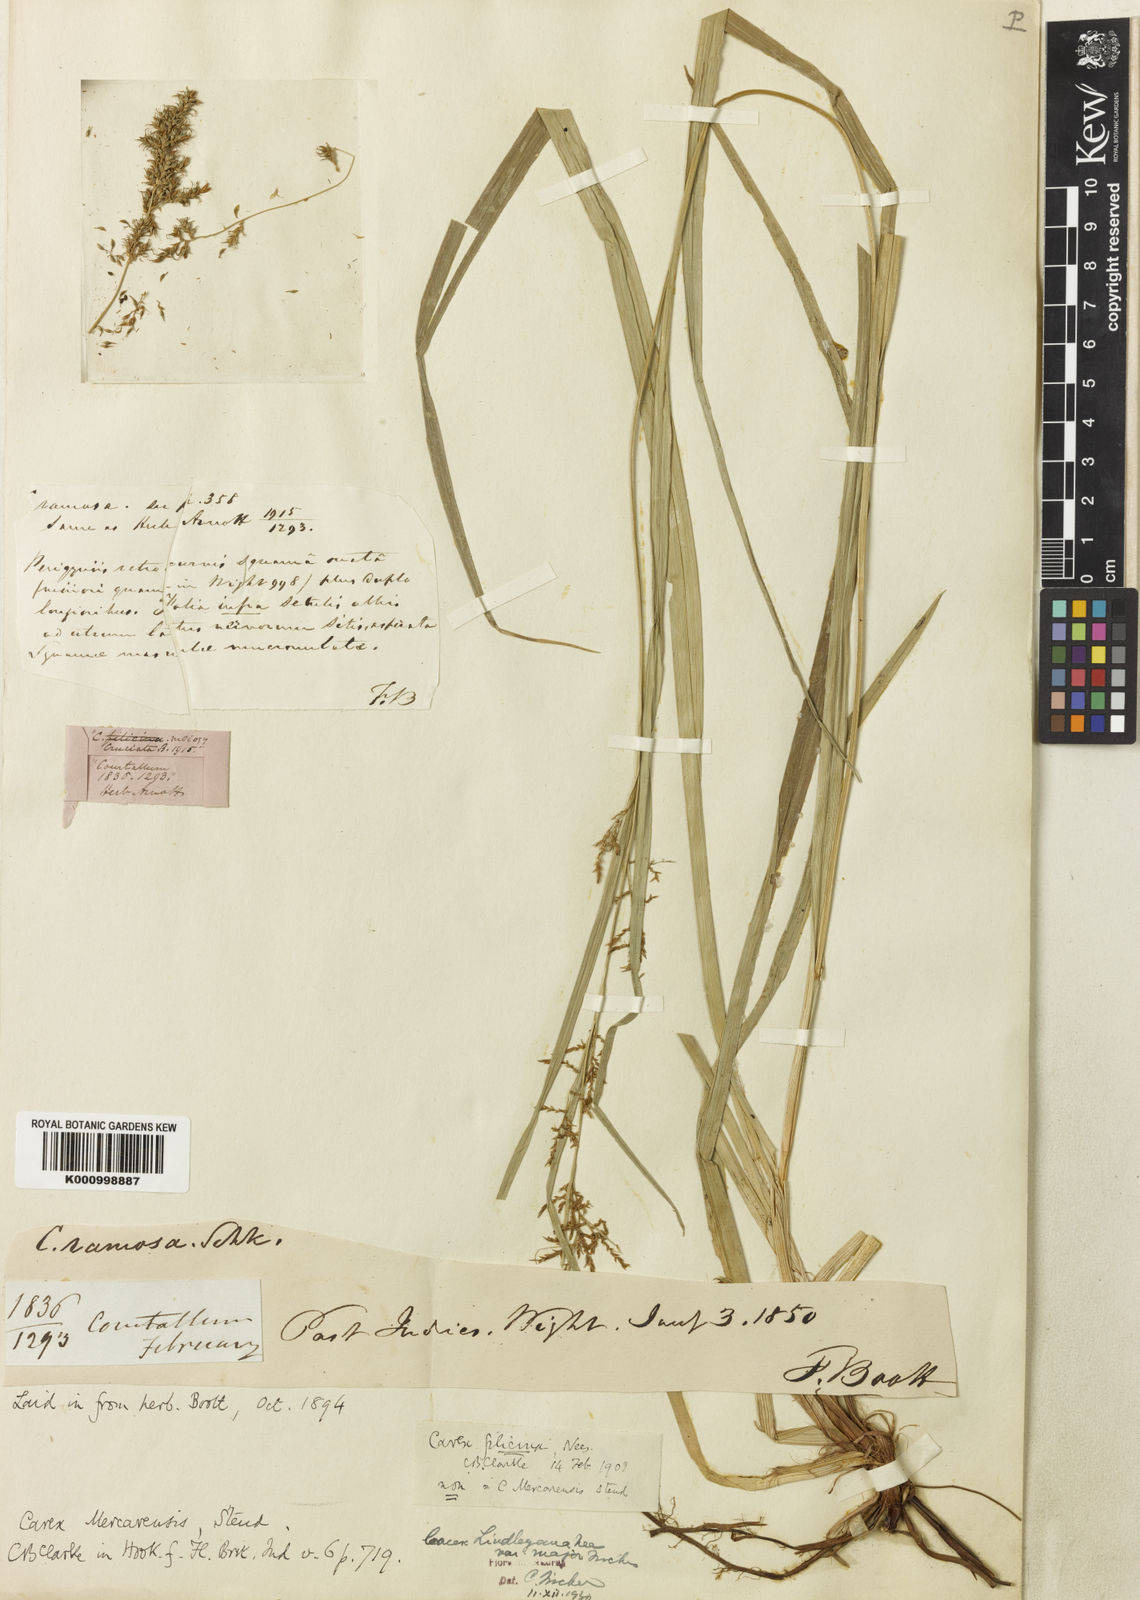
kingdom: Plantae
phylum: Tracheophyta
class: Liliopsida
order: Poales
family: Cyperaceae
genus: Carex
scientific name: Carex filicina
